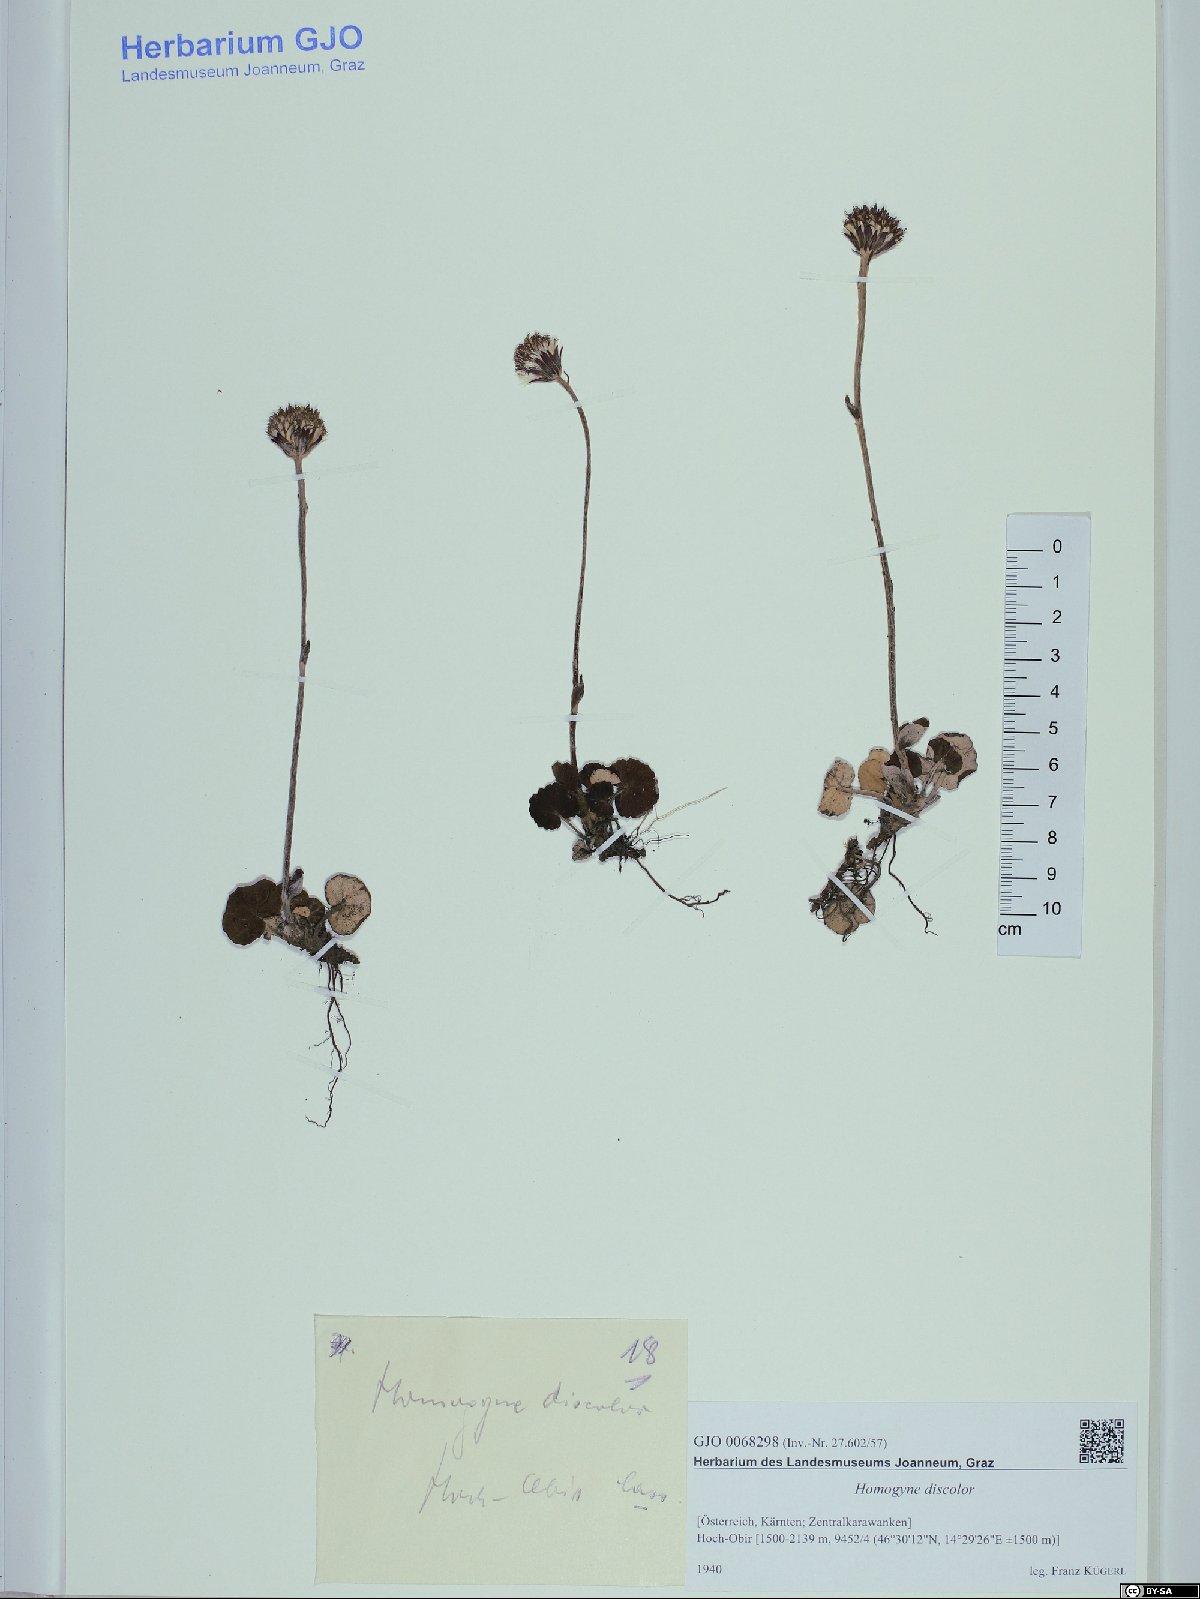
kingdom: Plantae
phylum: Tracheophyta
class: Magnoliopsida
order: Asterales
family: Asteraceae
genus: Homogyne
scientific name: Homogyne discolor
